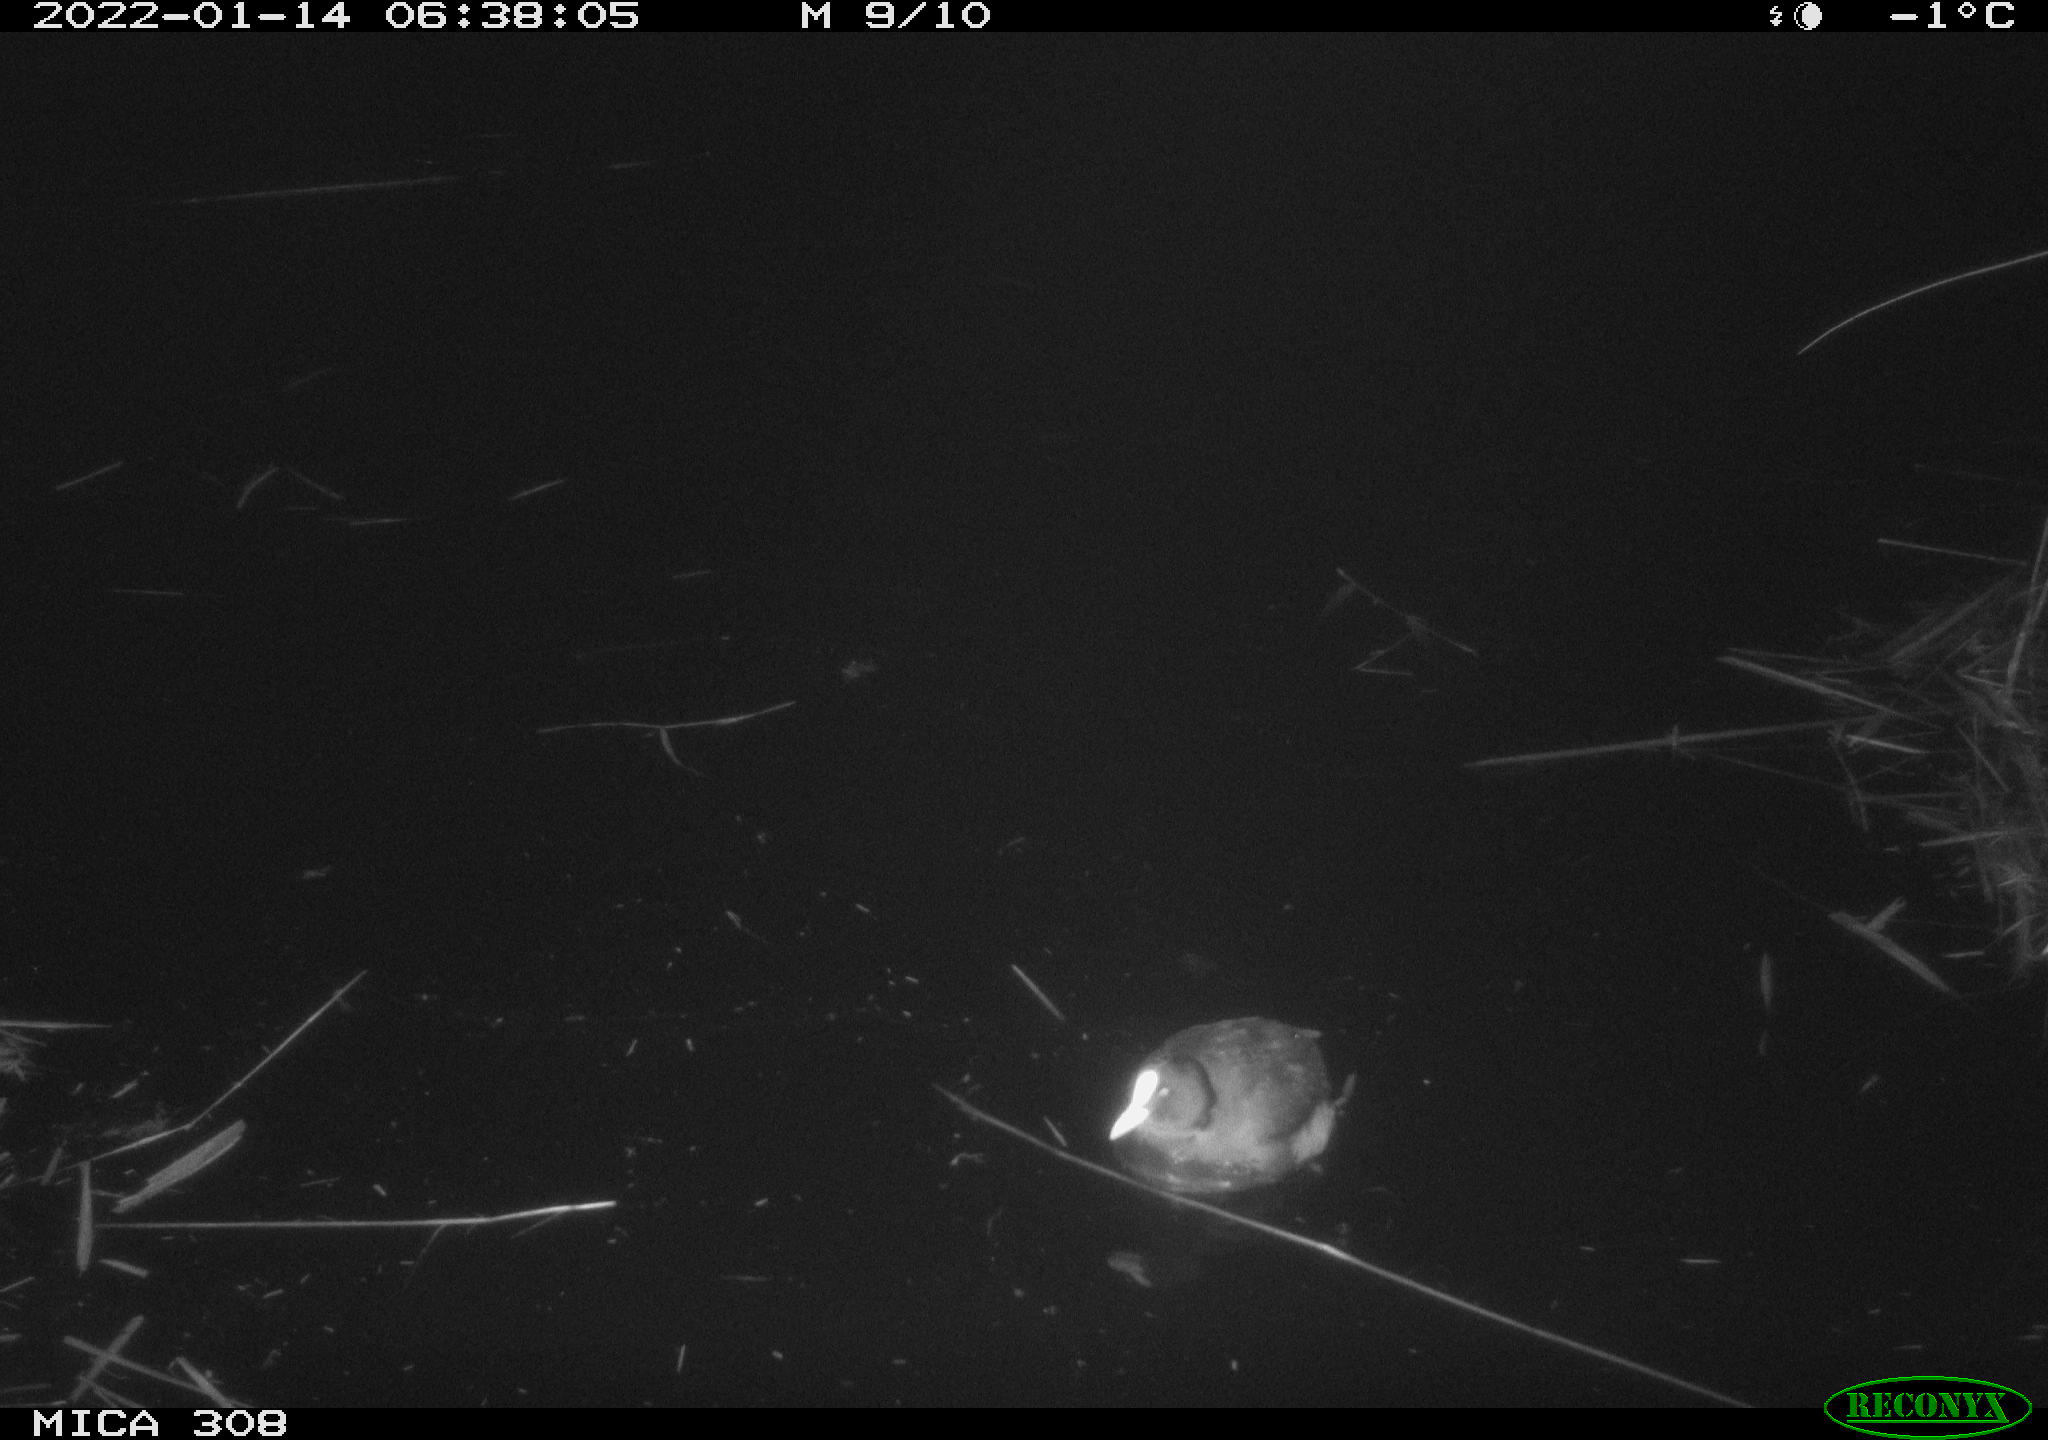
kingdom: Animalia
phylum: Chordata
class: Aves
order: Gruiformes
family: Rallidae
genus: Fulica
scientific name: Fulica atra
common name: Eurasian coot
